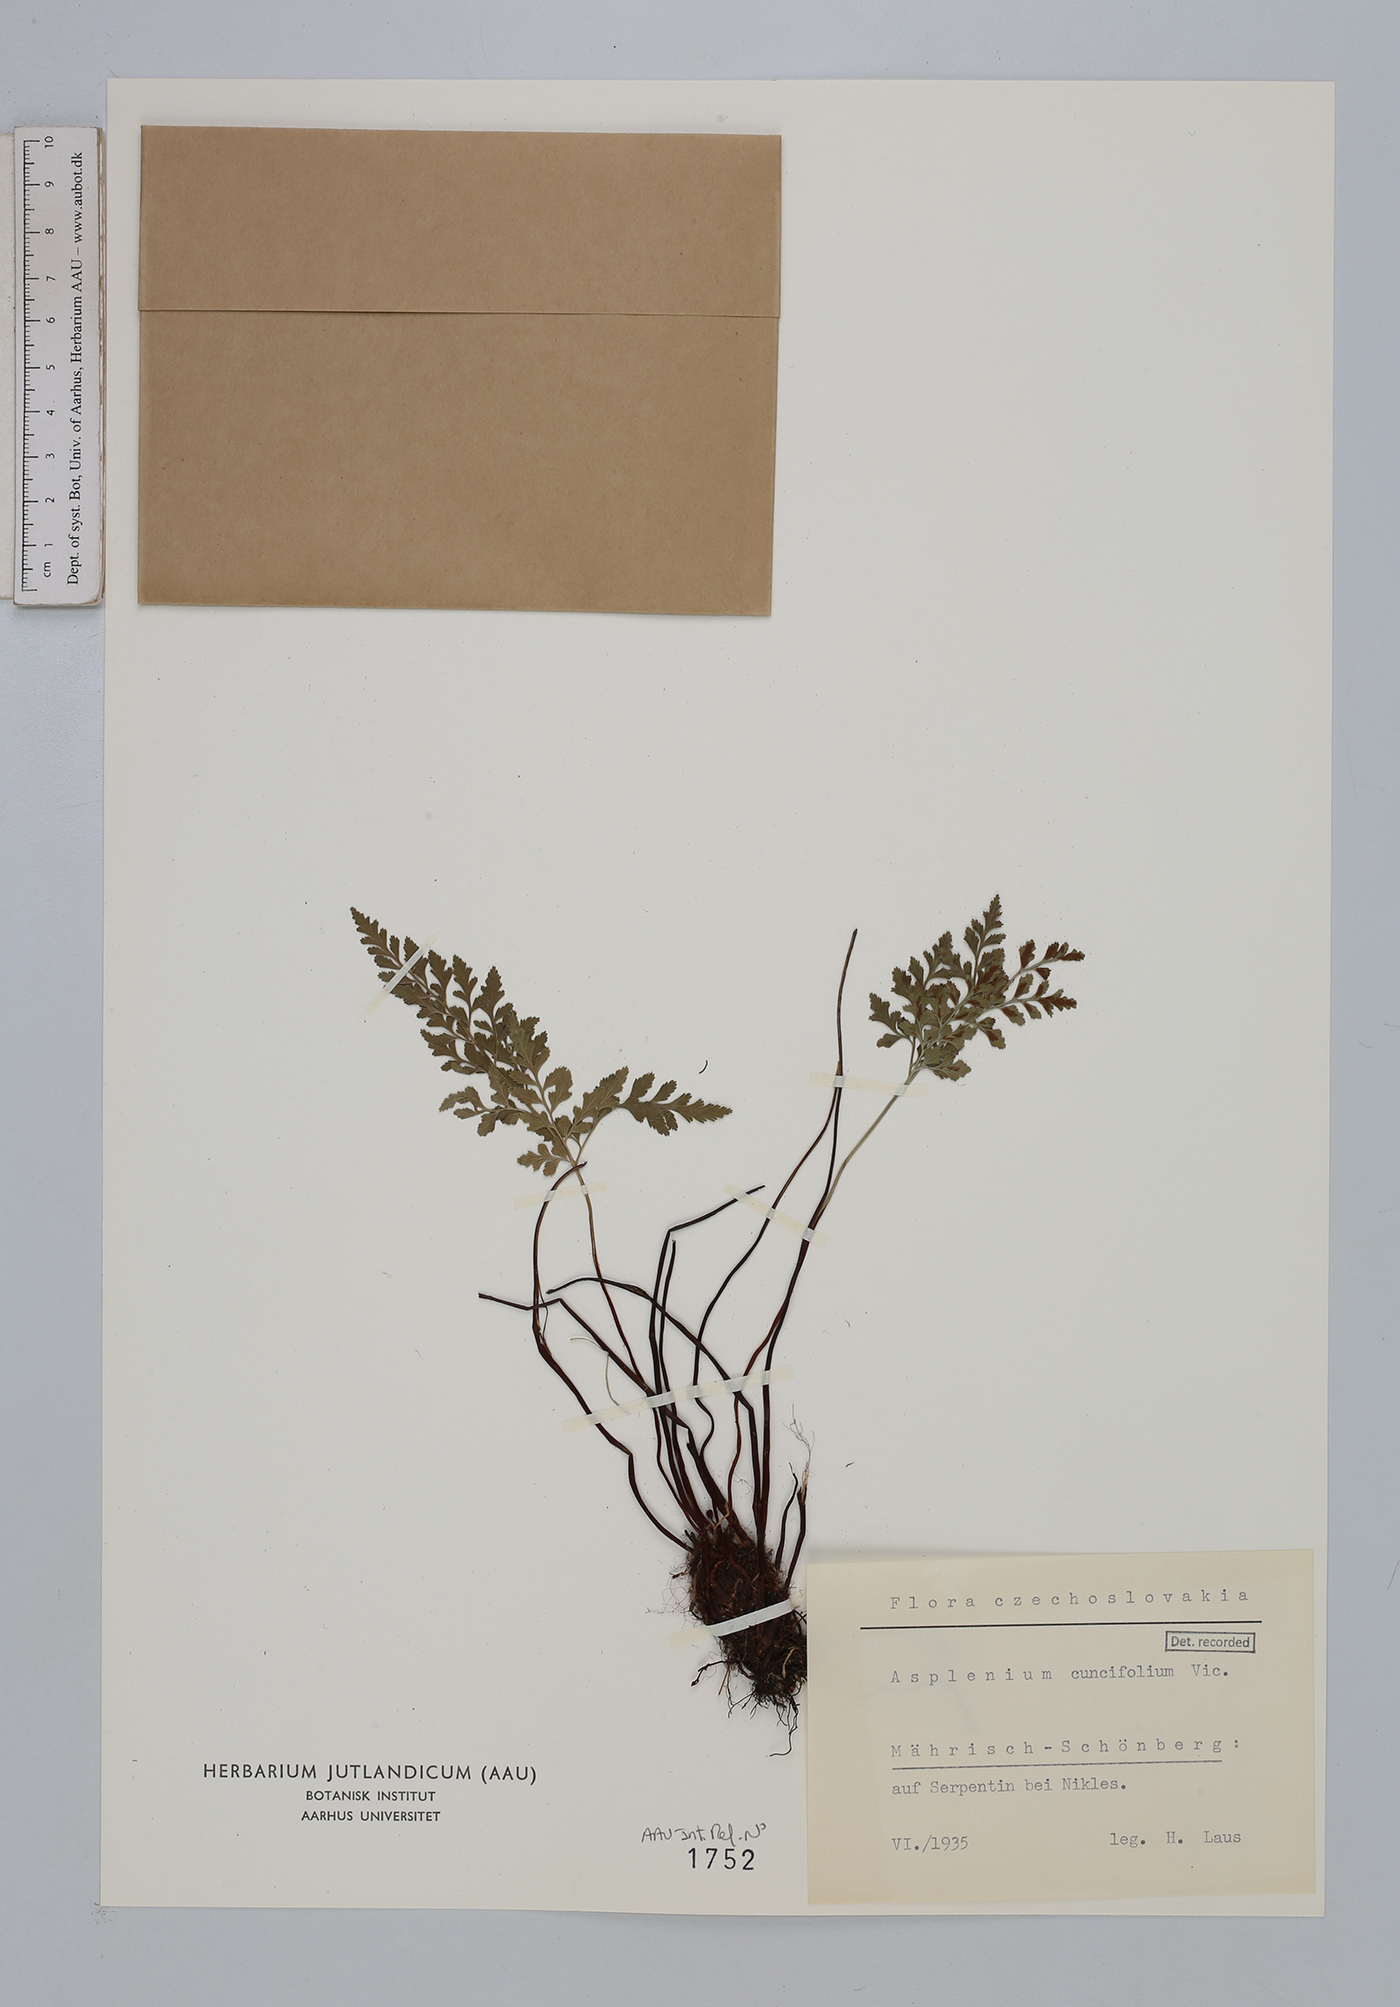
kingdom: Plantae
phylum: Tracheophyta
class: Polypodiopsida
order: Polypodiales
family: Aspleniaceae
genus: Asplenium
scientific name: Asplenium cuneifolium
